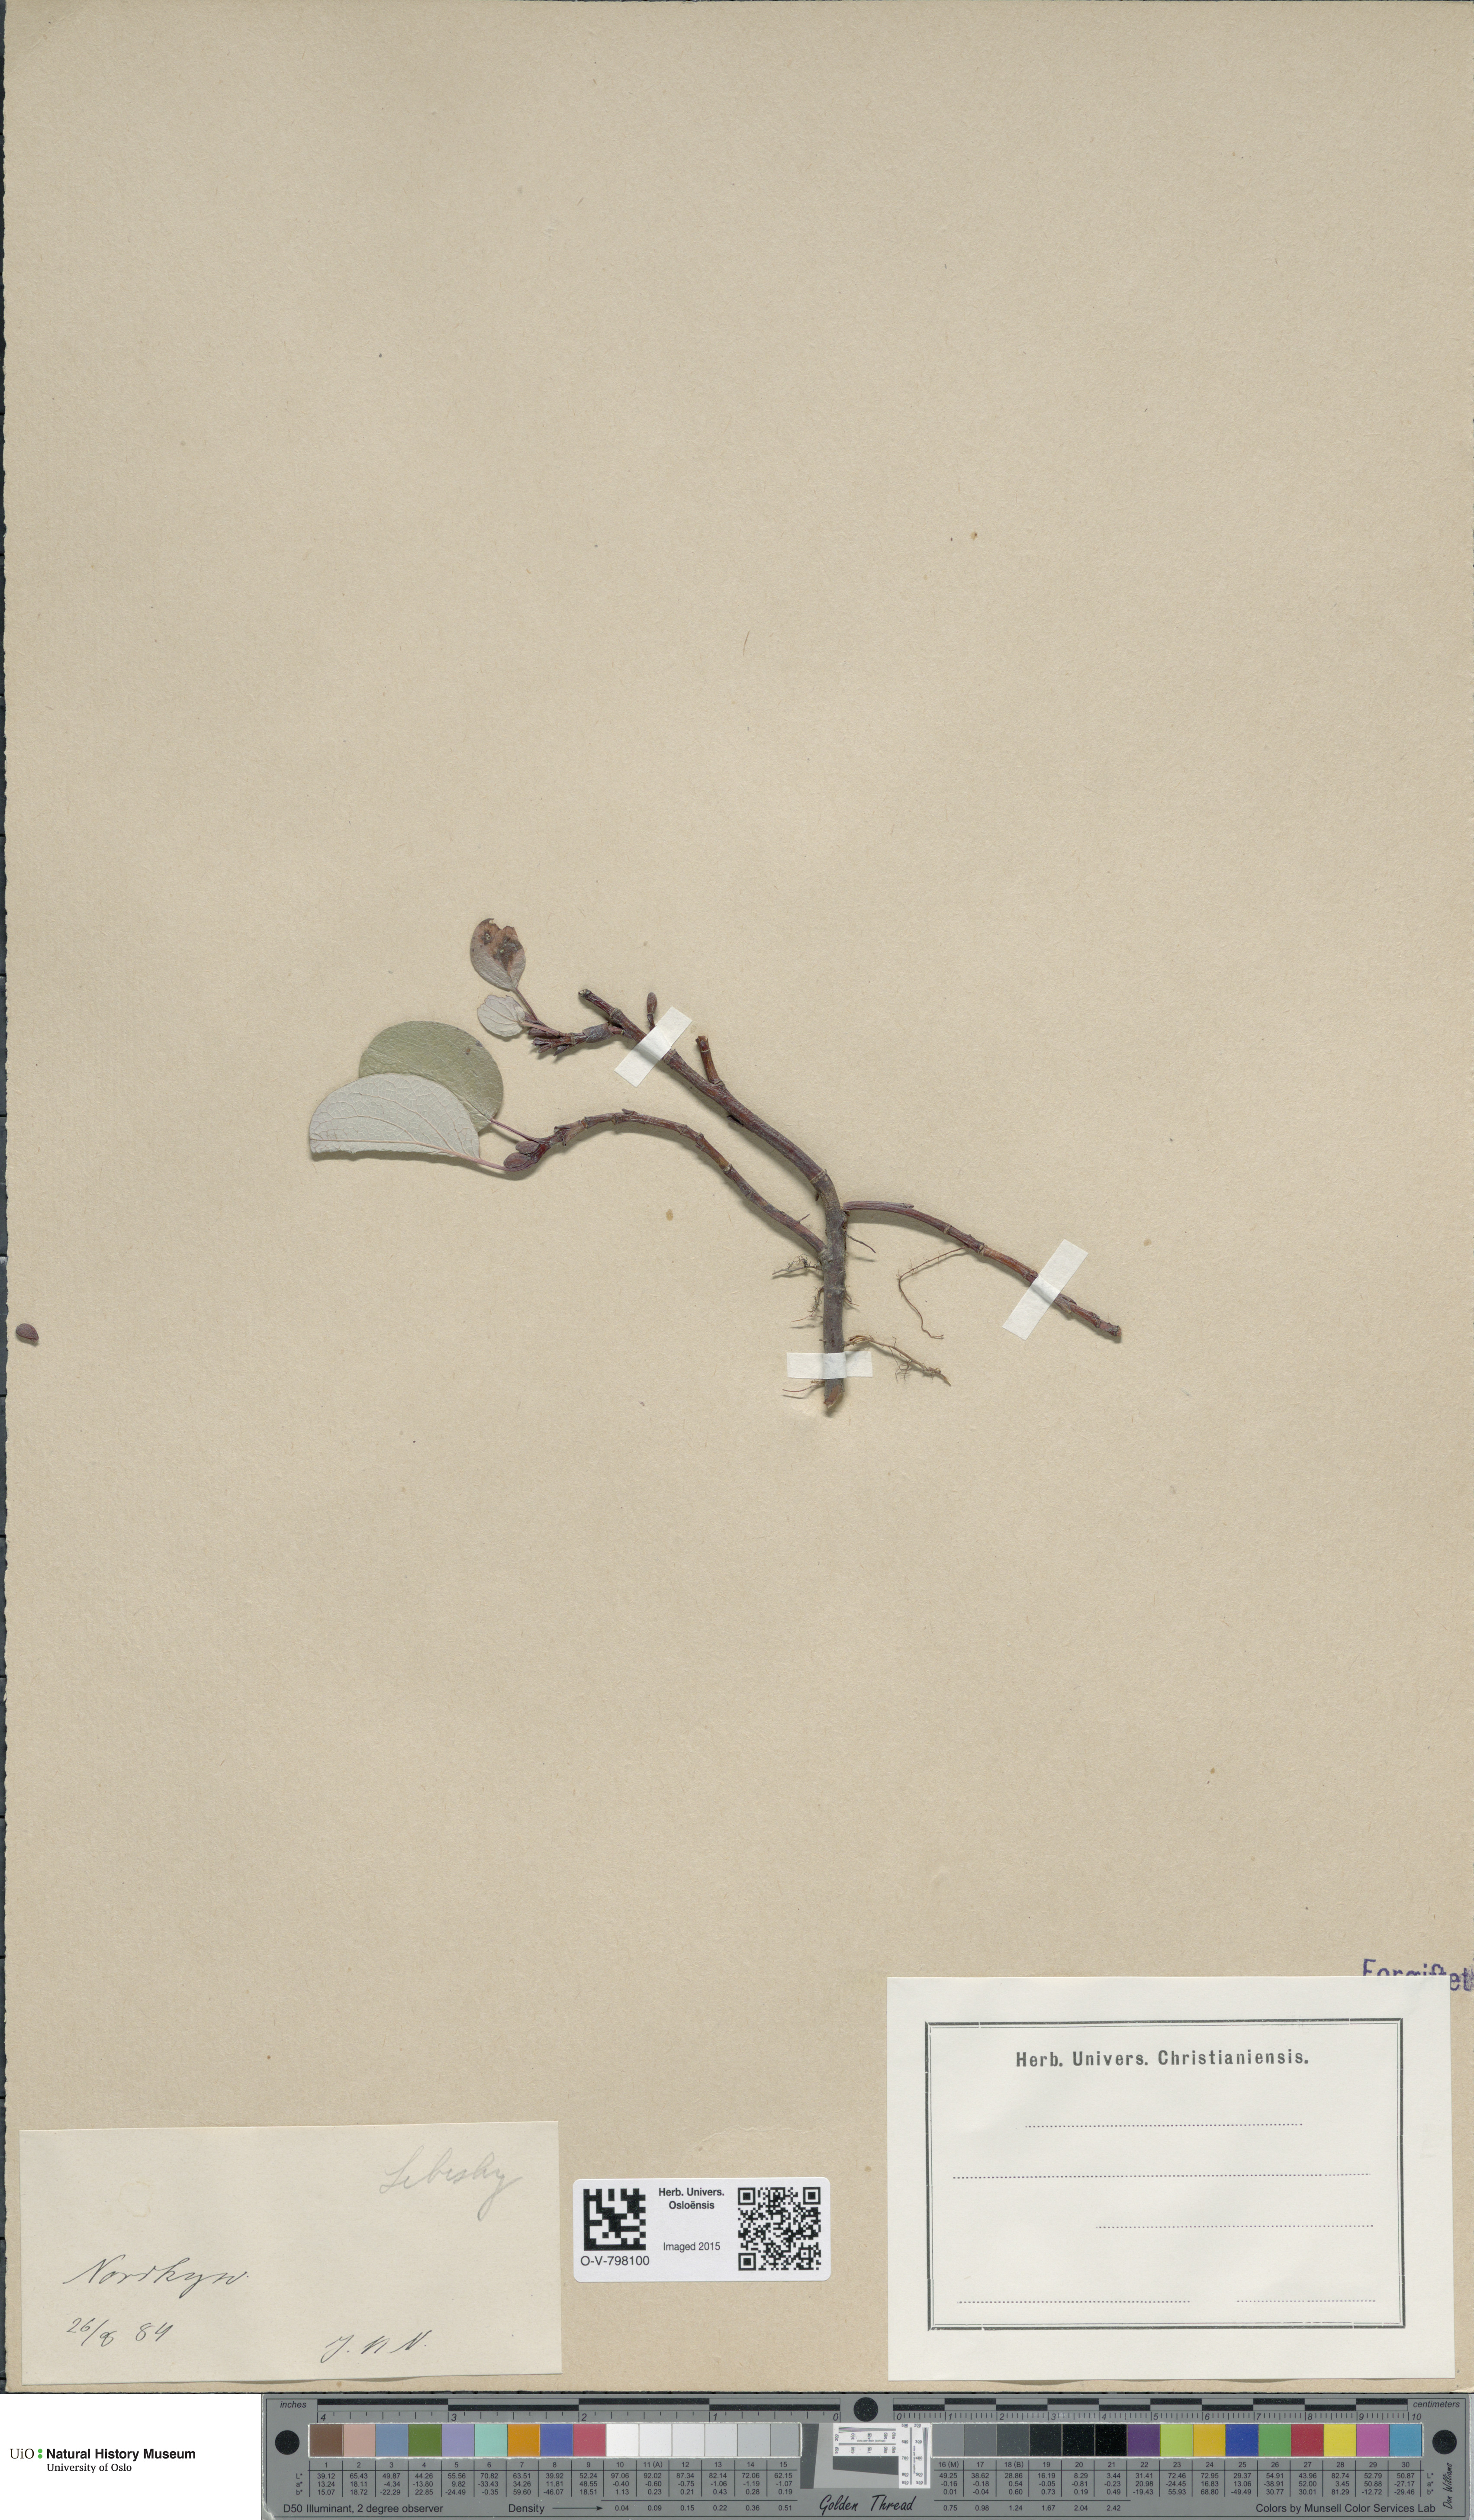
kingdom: Plantae
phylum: Tracheophyta
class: Magnoliopsida
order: Malpighiales
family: Salicaceae
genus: Salix
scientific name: Salix reticulata
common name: Net-leaved willow
